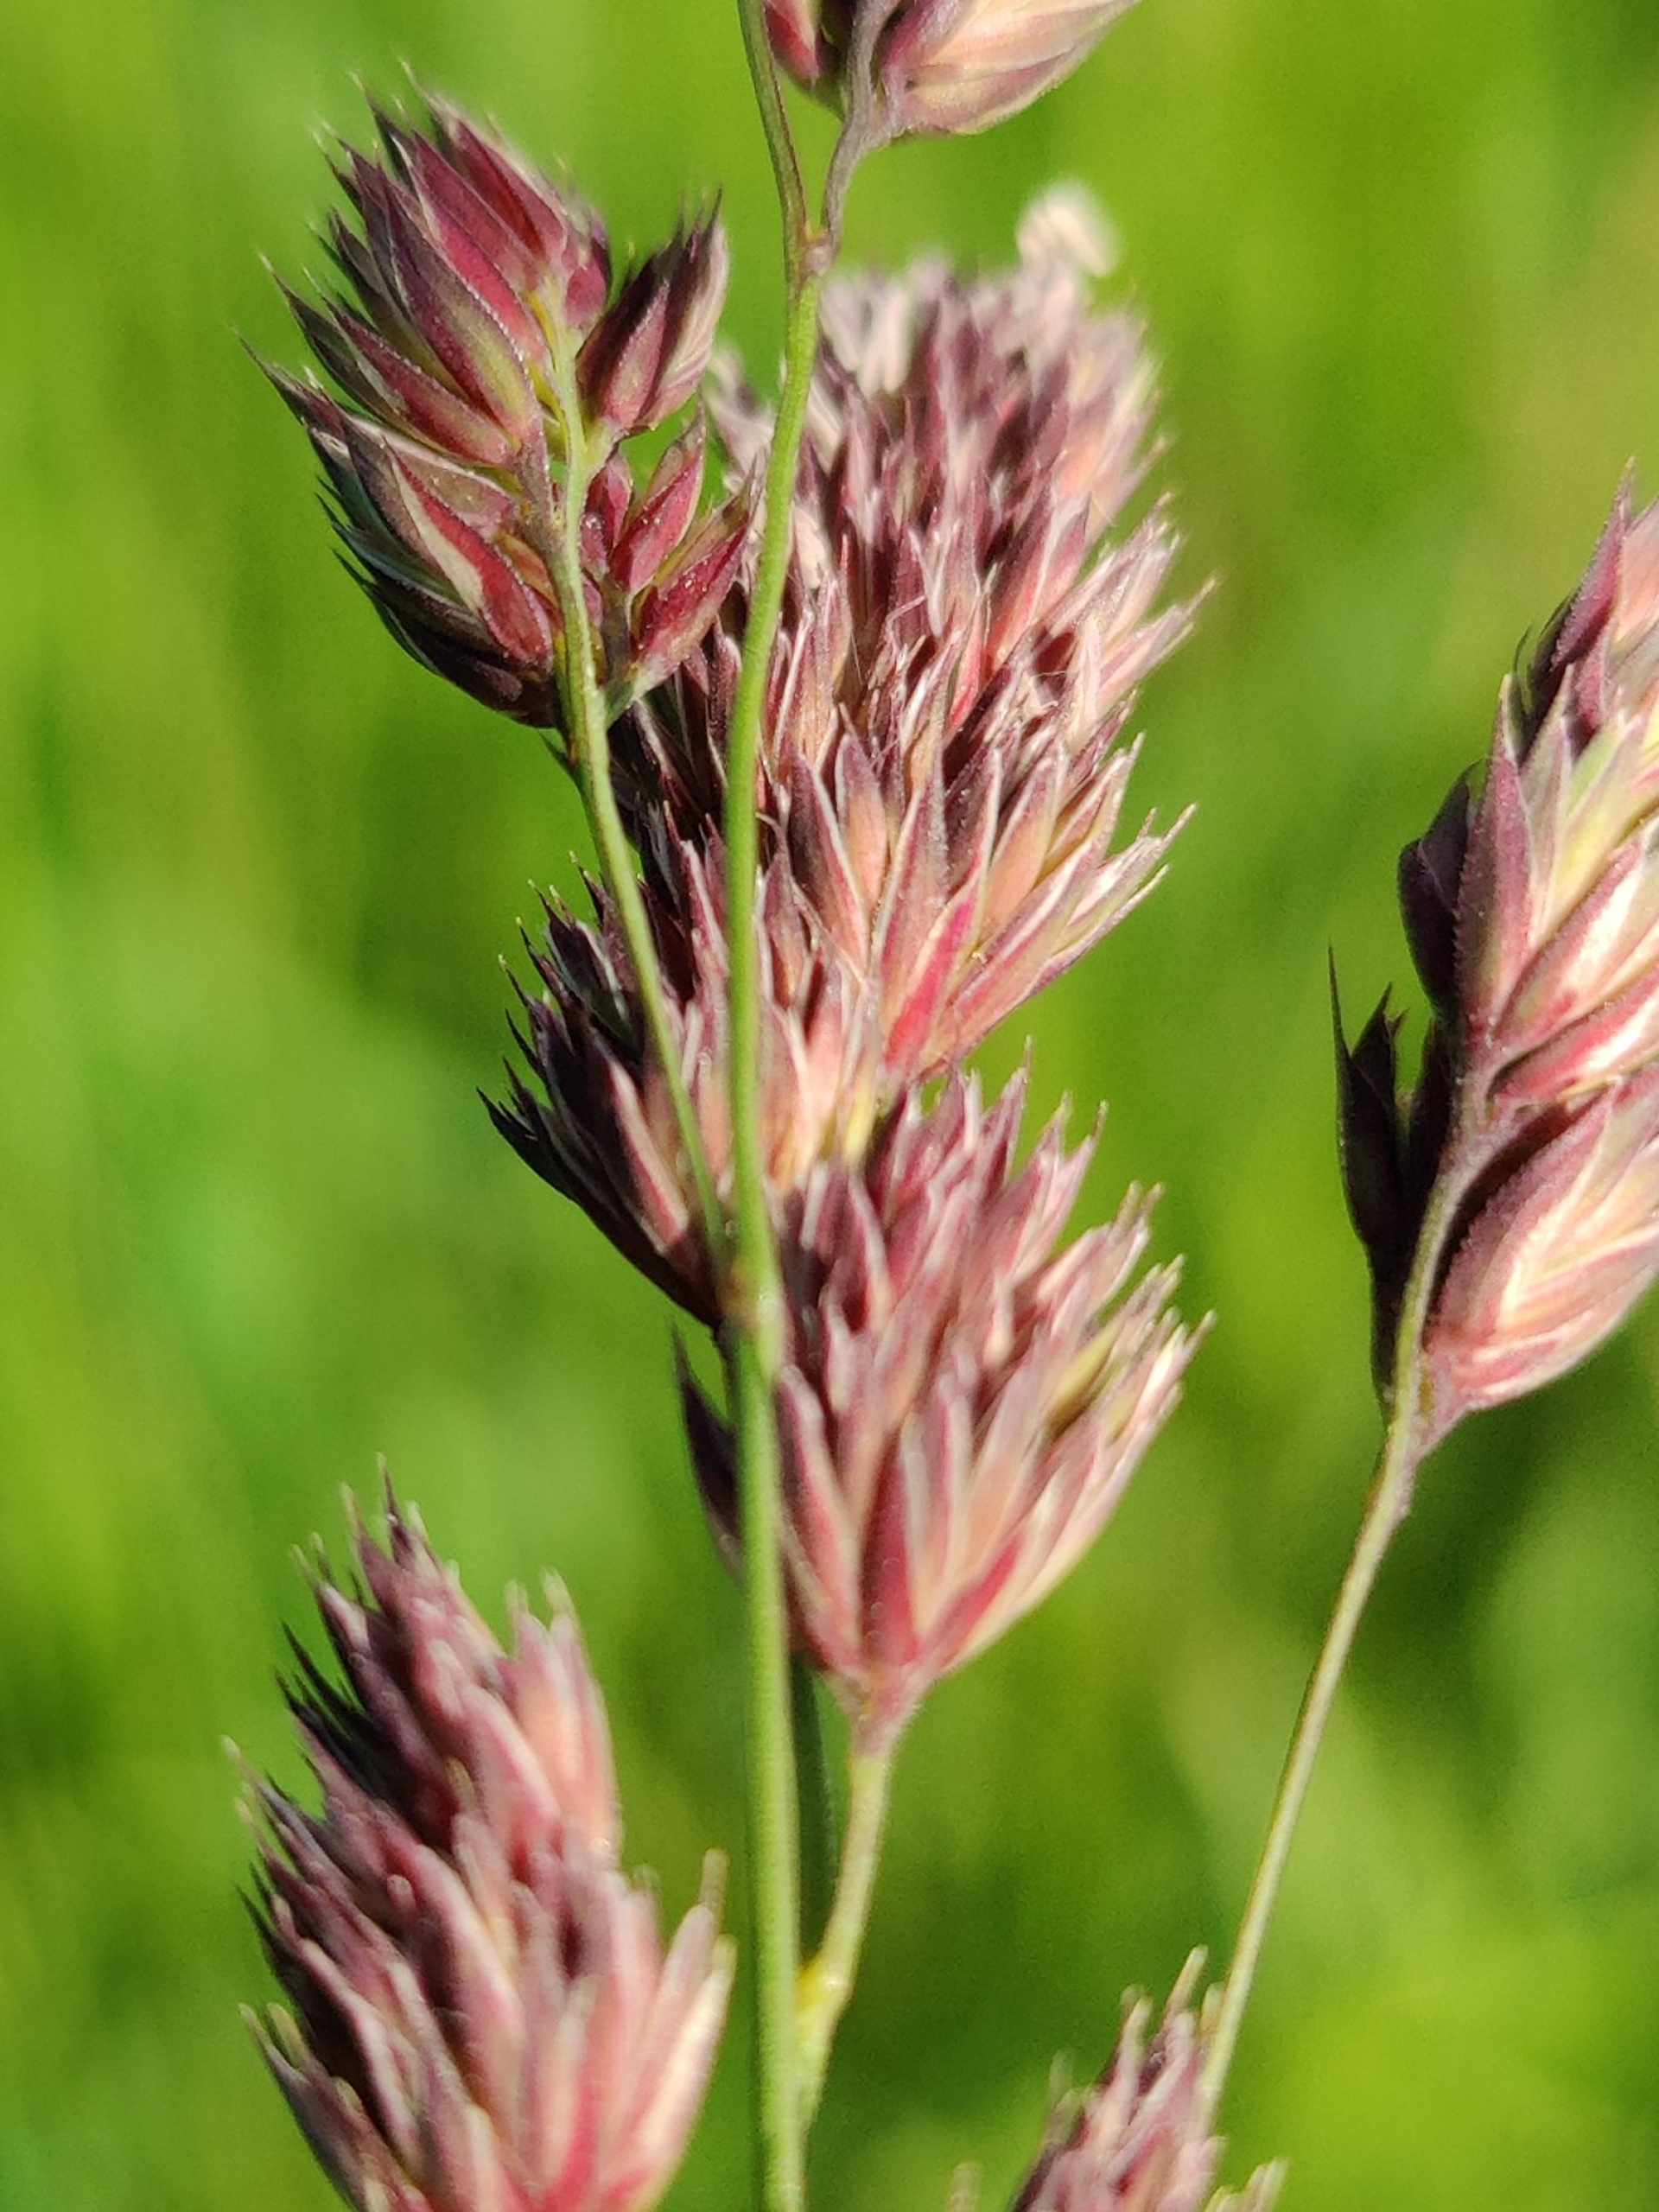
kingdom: Plantae
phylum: Tracheophyta
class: Liliopsida
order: Poales
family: Poaceae
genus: Dactylis
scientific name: Dactylis glomerata
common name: Almindelig hundegræs
